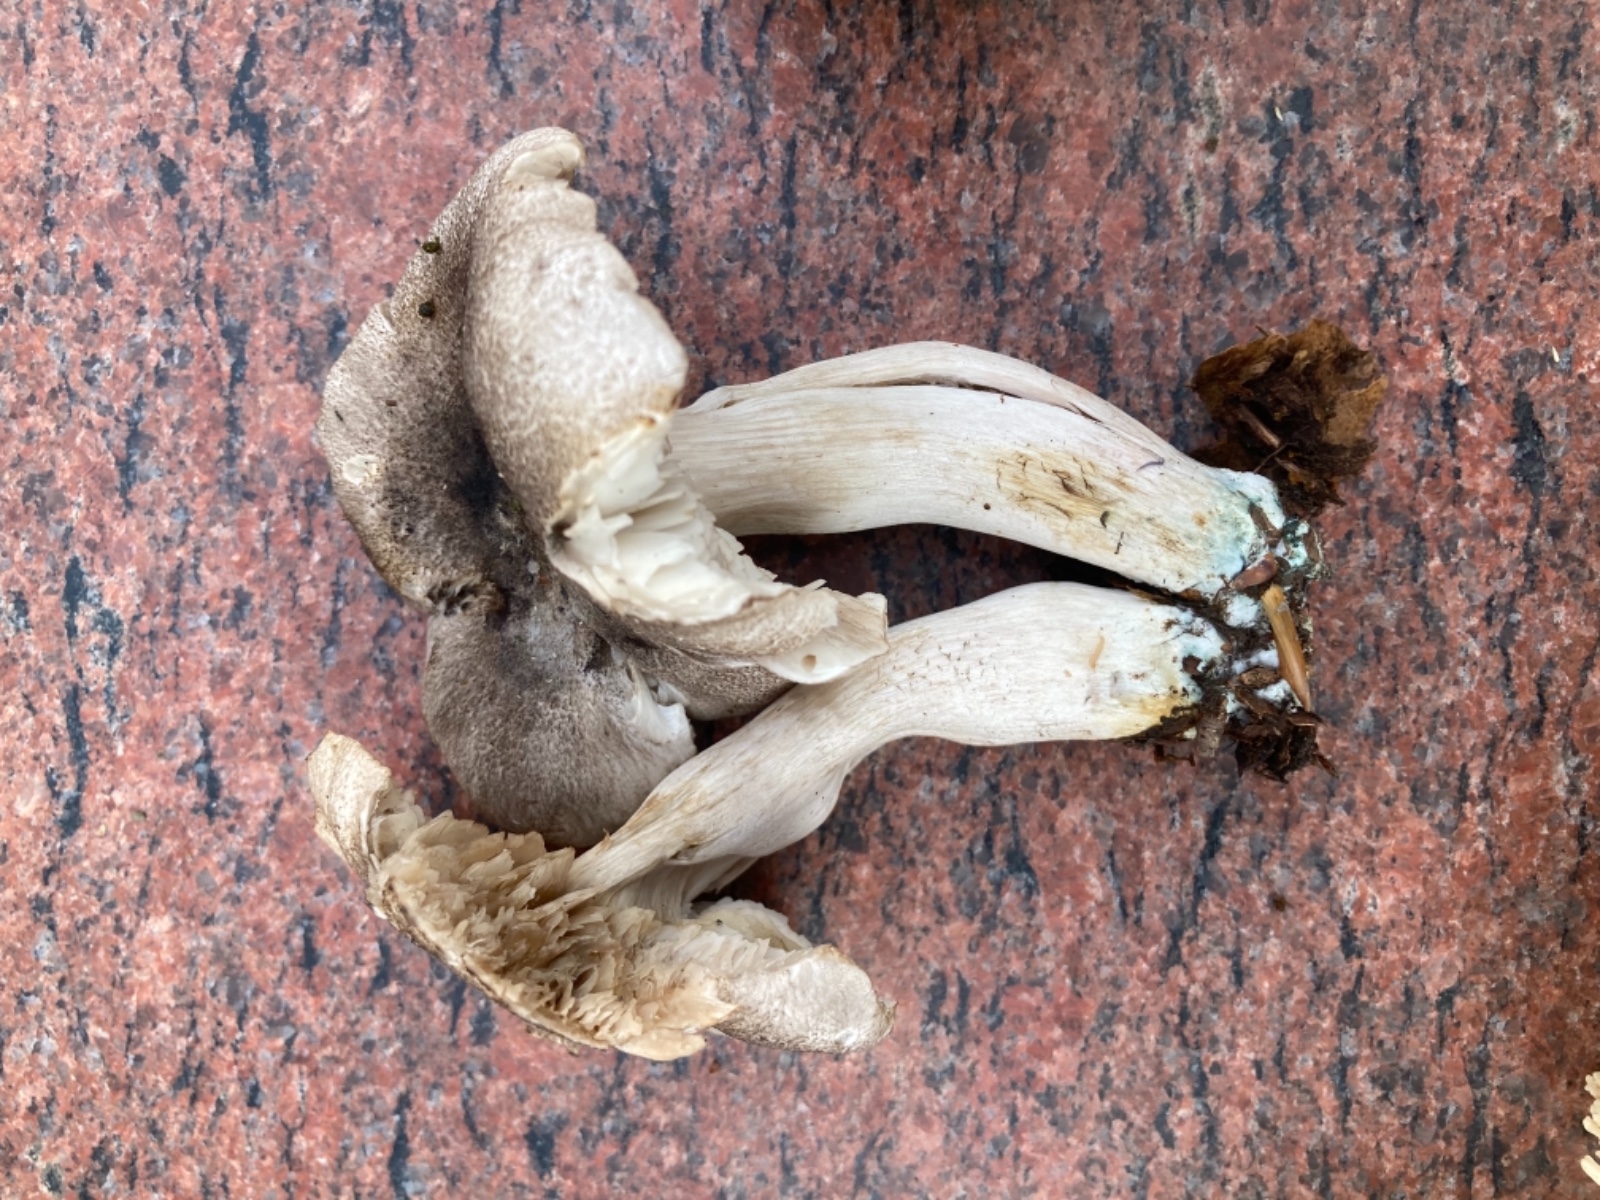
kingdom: Fungi
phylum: Basidiomycota
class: Agaricomycetes
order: Agaricales
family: Tricholomataceae
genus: Tricholoma
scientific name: Tricholoma orirubens
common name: rødbladet ridderhat
